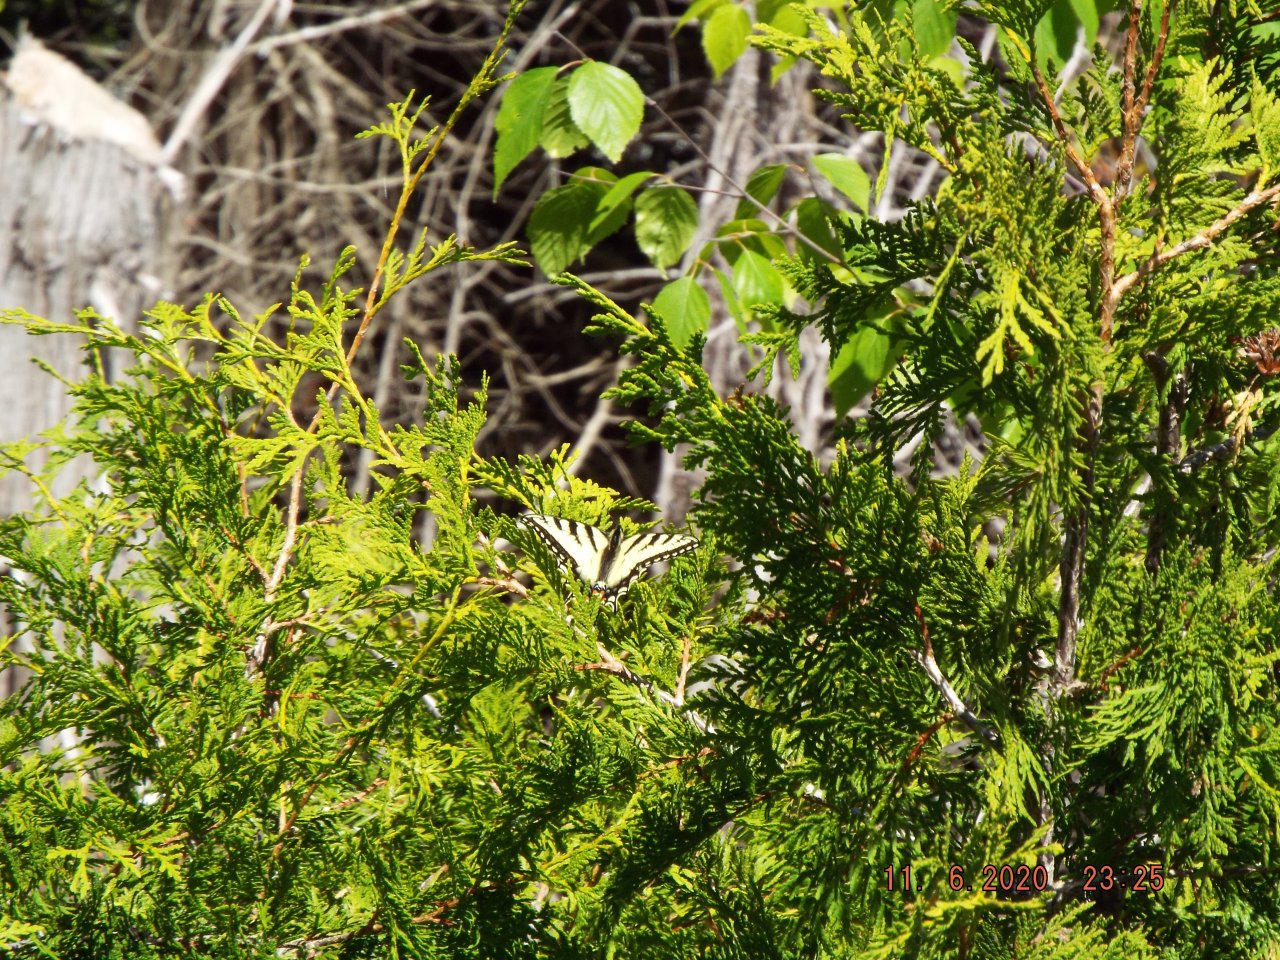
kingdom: Animalia
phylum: Arthropoda
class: Insecta
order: Lepidoptera
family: Papilionidae
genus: Pterourus
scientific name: Pterourus canadensis
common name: Canadian Tiger Swallowtail
